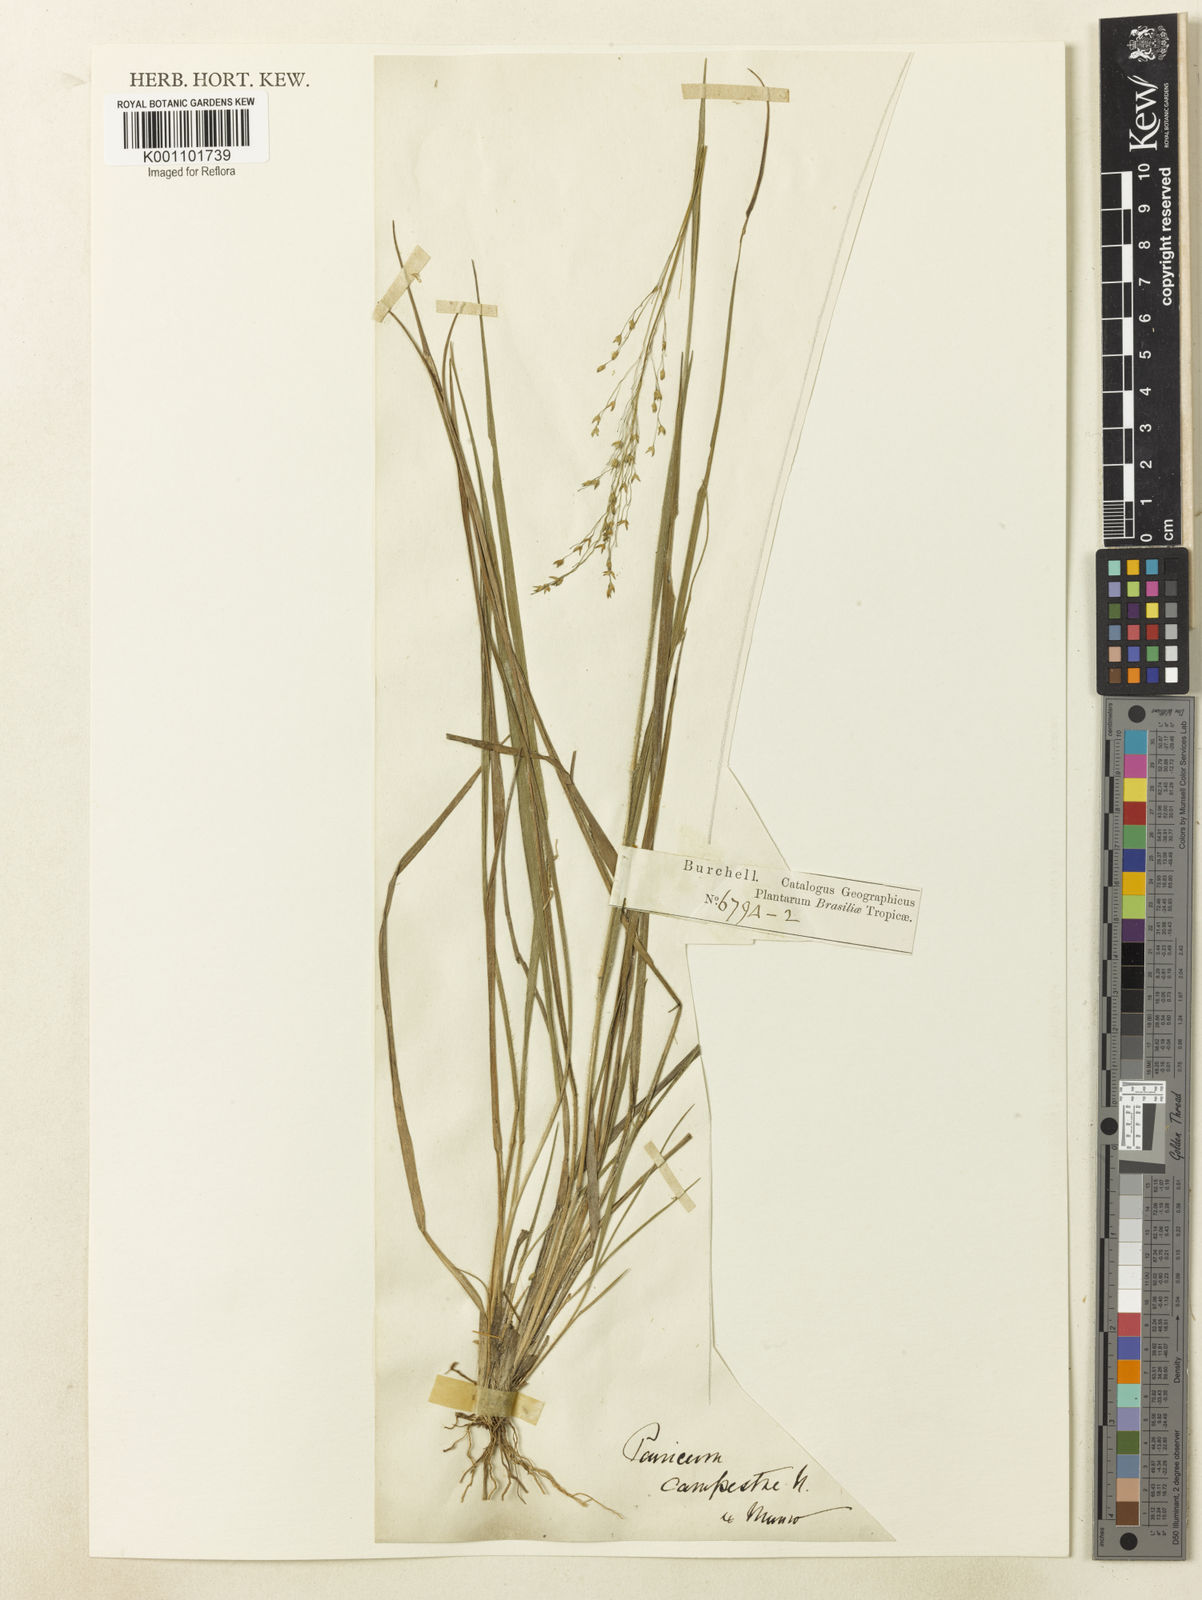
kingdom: Plantae
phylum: Tracheophyta
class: Liliopsida
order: Poales
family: Poaceae
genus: Panicum
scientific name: Panicum peladoense
